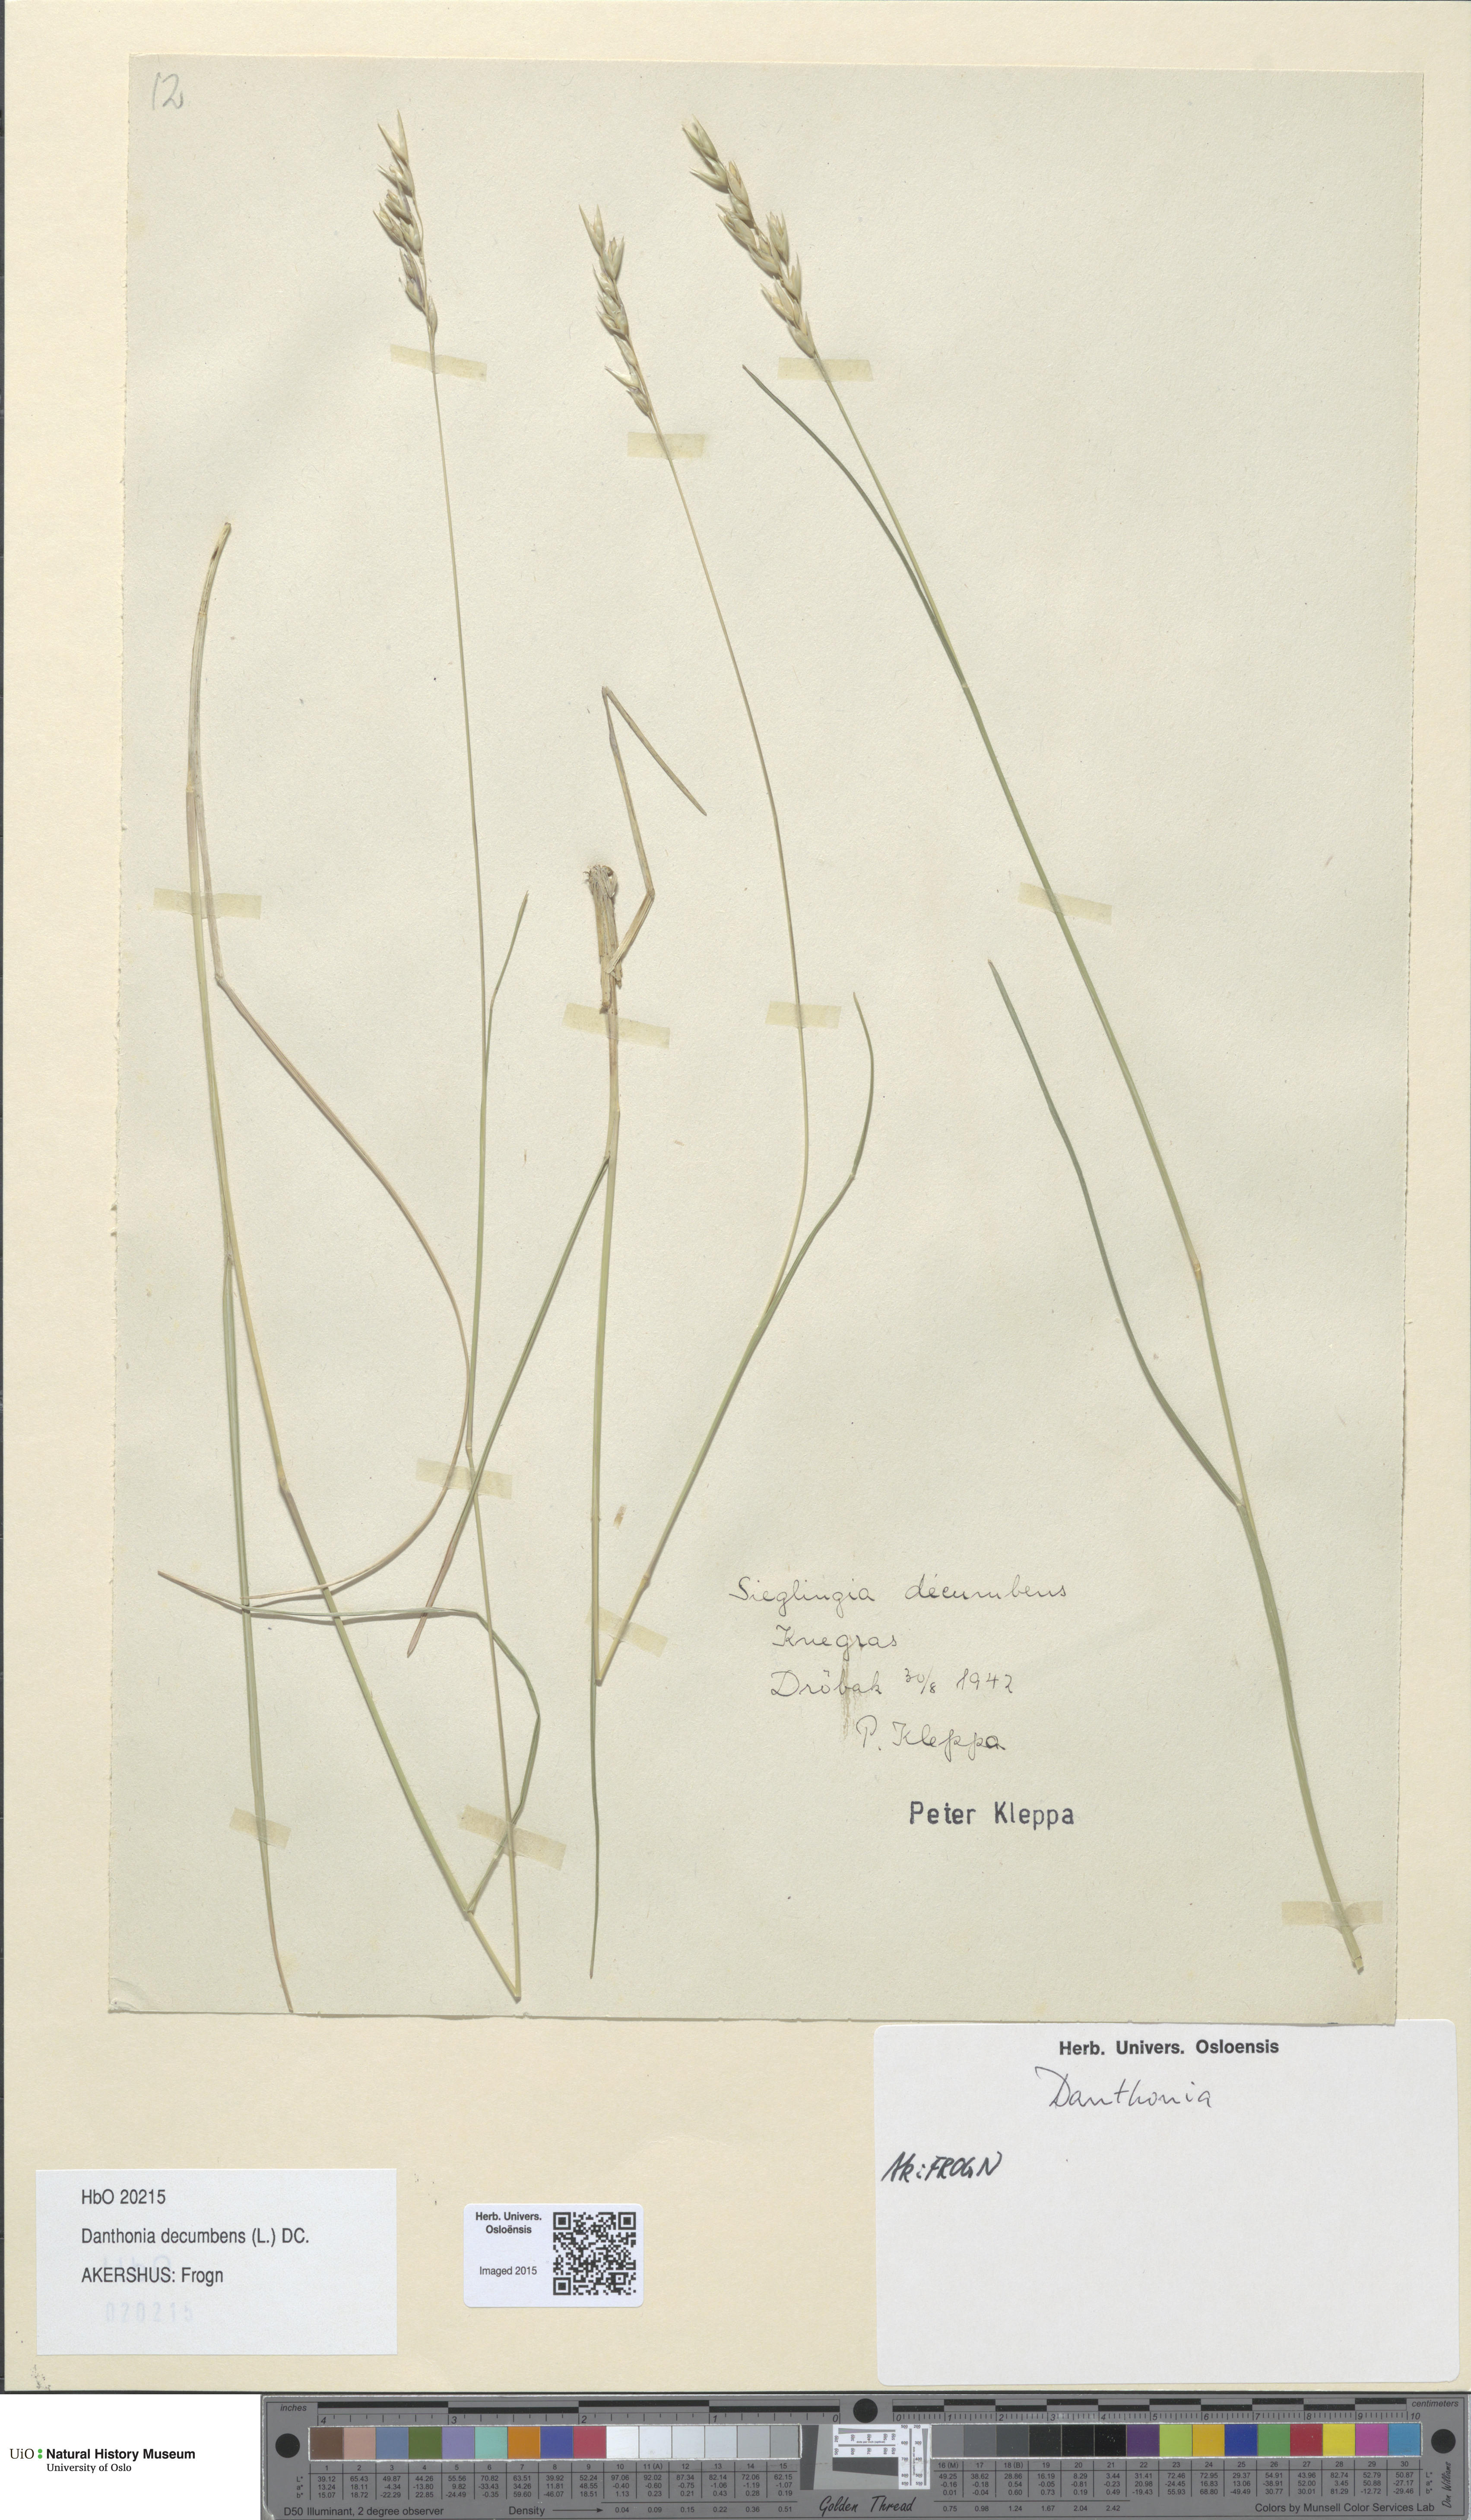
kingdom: Plantae
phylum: Tracheophyta
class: Liliopsida
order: Poales
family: Poaceae
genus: Danthonia
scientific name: Danthonia decumbens
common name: Common heathgrass
